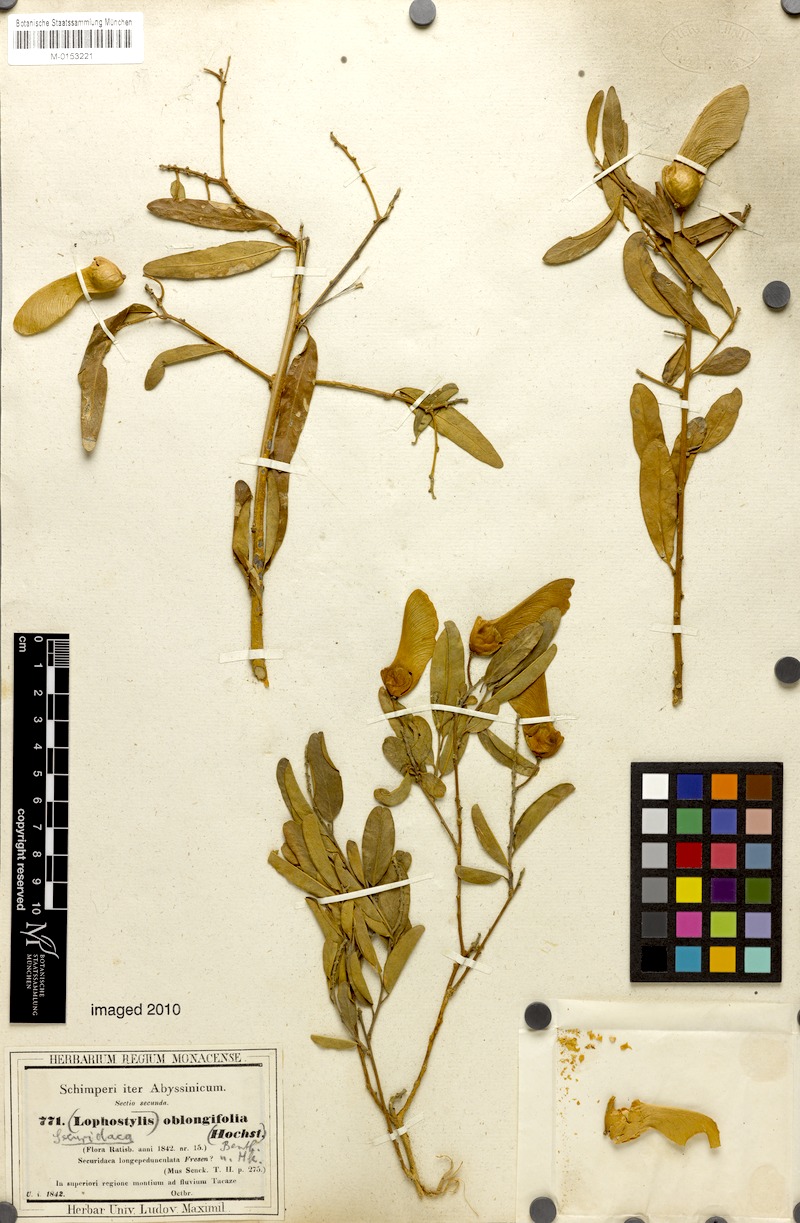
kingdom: Plantae
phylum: Tracheophyta
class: Magnoliopsida
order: Fabales
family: Polygalaceae
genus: Securidaca
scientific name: Securidaca longepedunculata
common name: Violet tree
